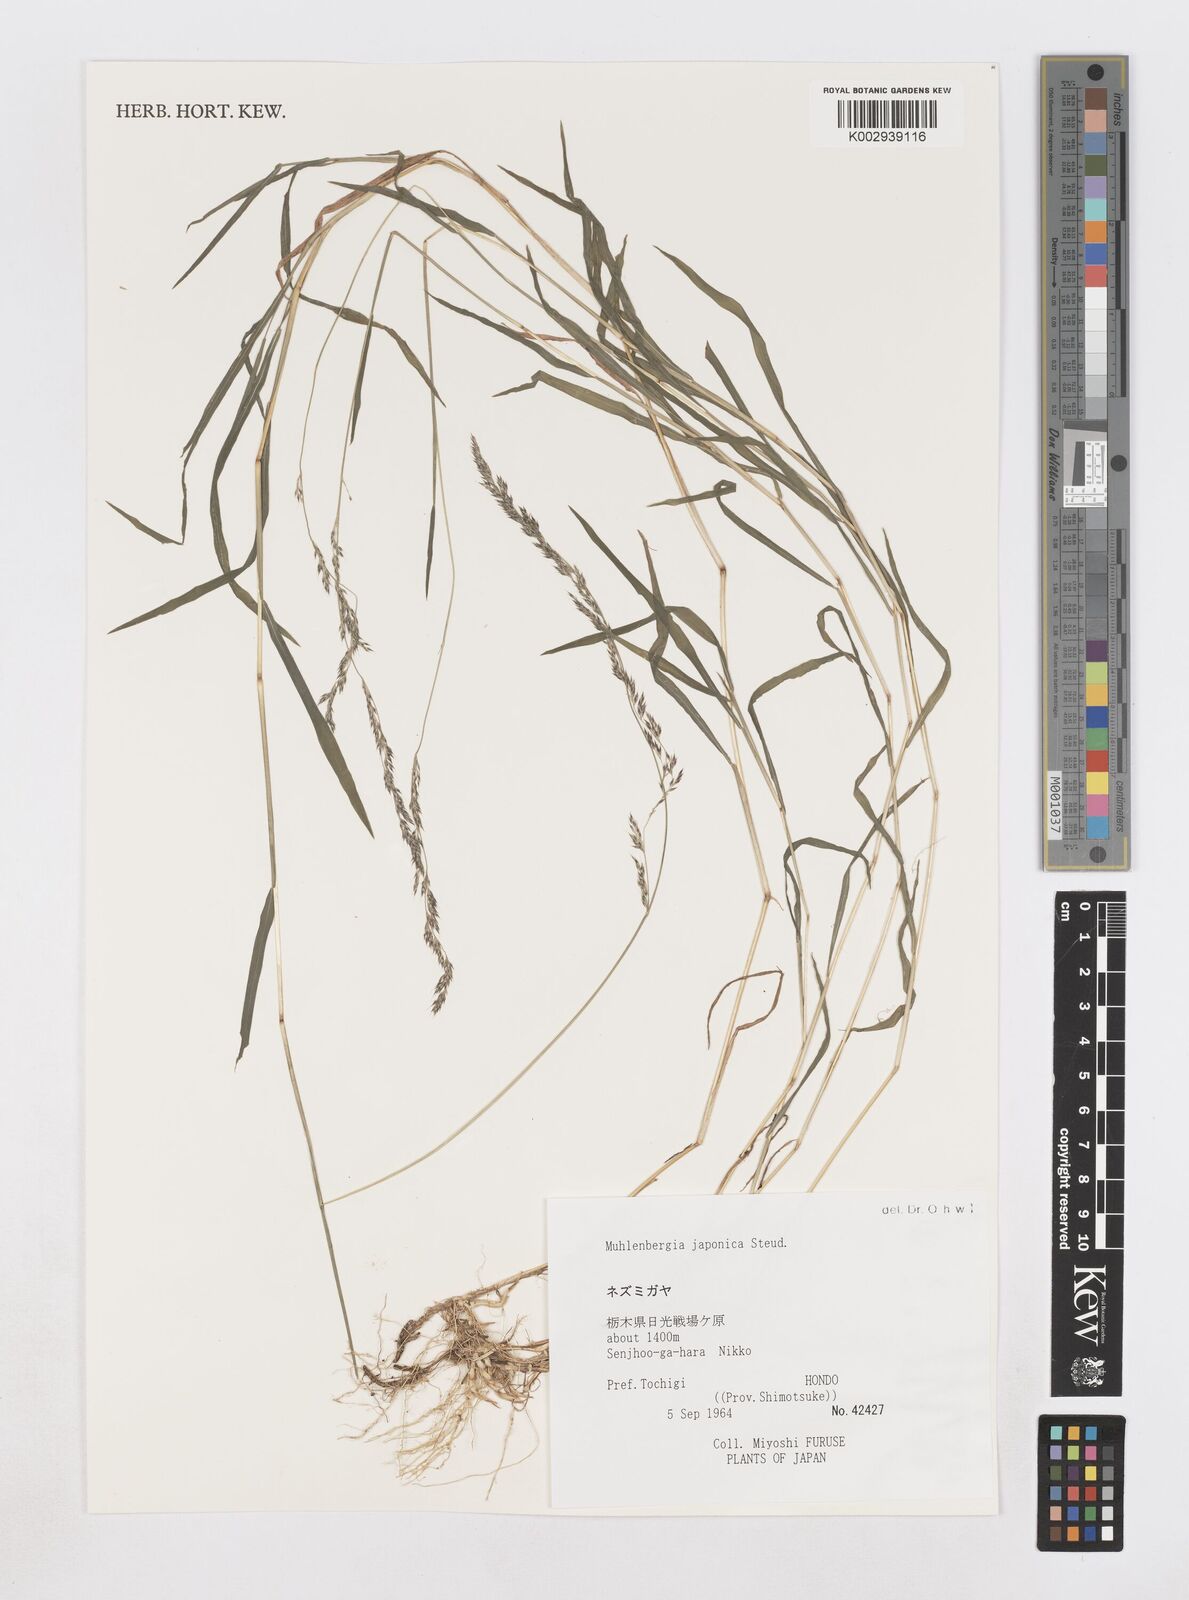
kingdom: Plantae
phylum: Tracheophyta
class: Liliopsida
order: Poales
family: Poaceae
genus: Muhlenbergia
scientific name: Muhlenbergia japonica
